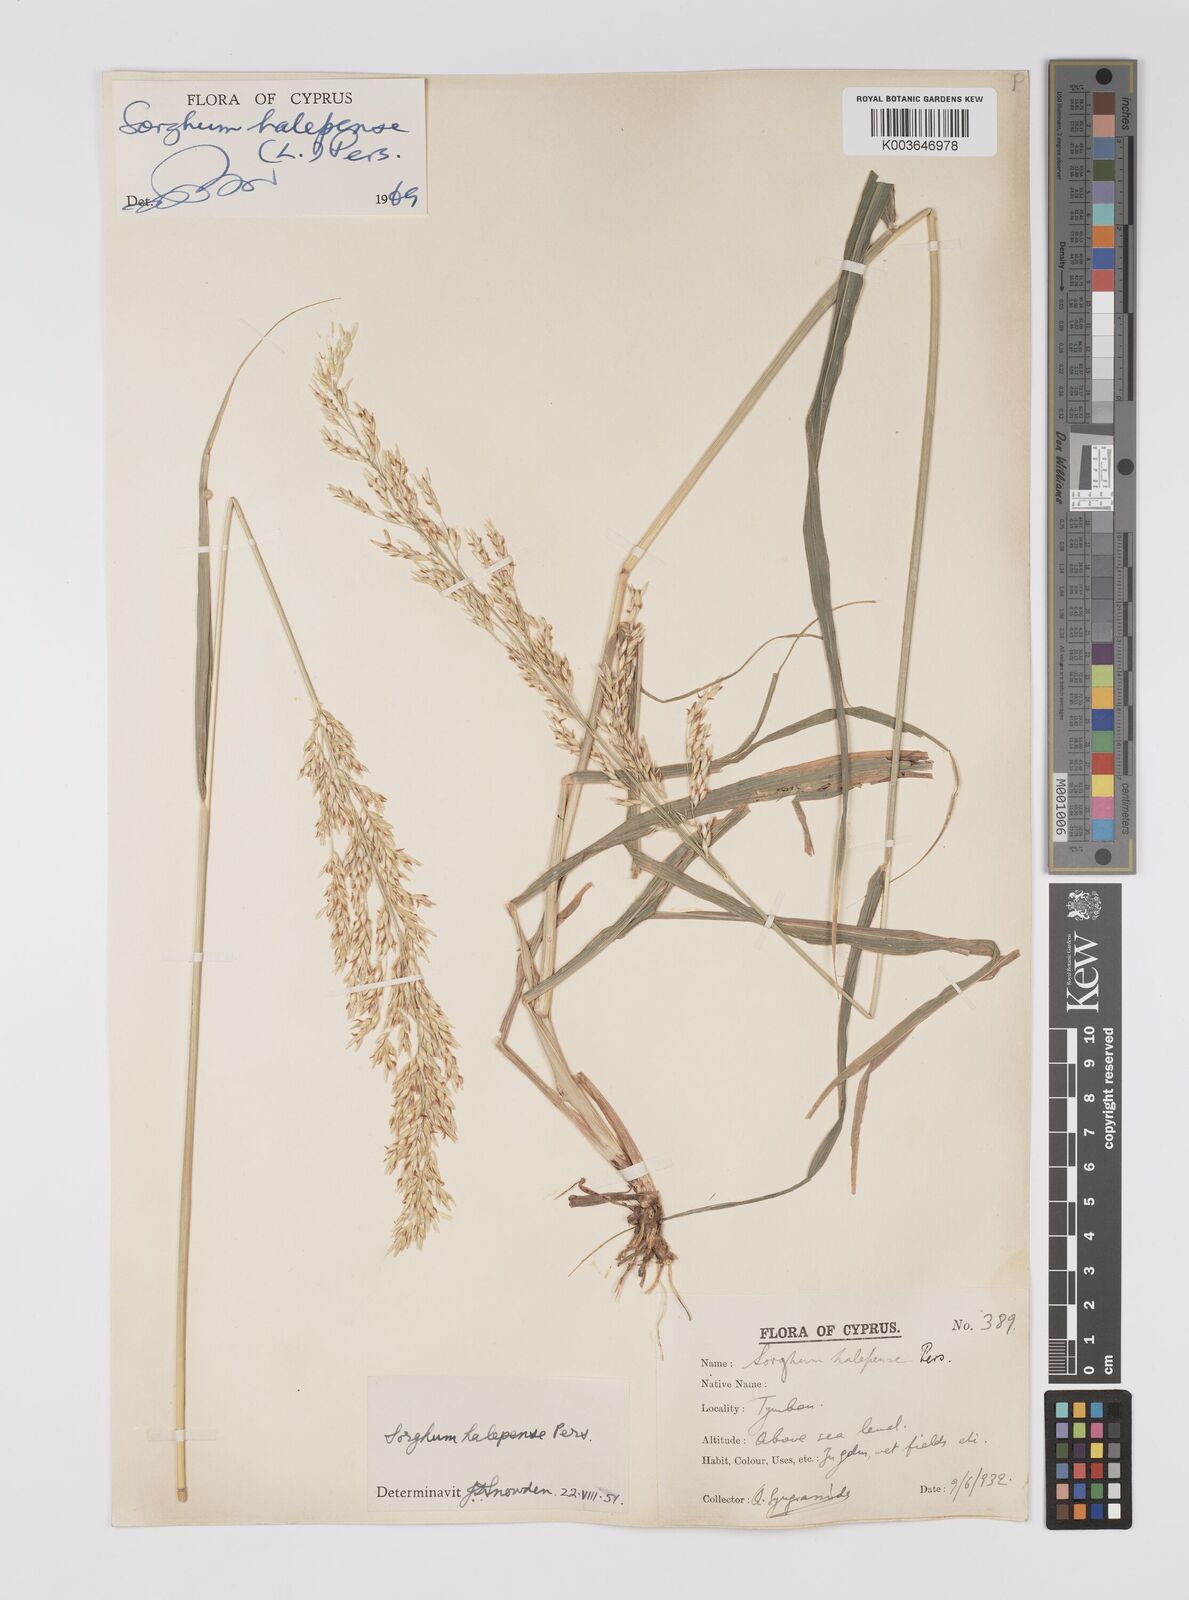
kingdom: Plantae
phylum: Tracheophyta
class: Liliopsida
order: Poales
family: Poaceae
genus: Sorghum
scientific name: Sorghum halepense
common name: Johnson-grass
